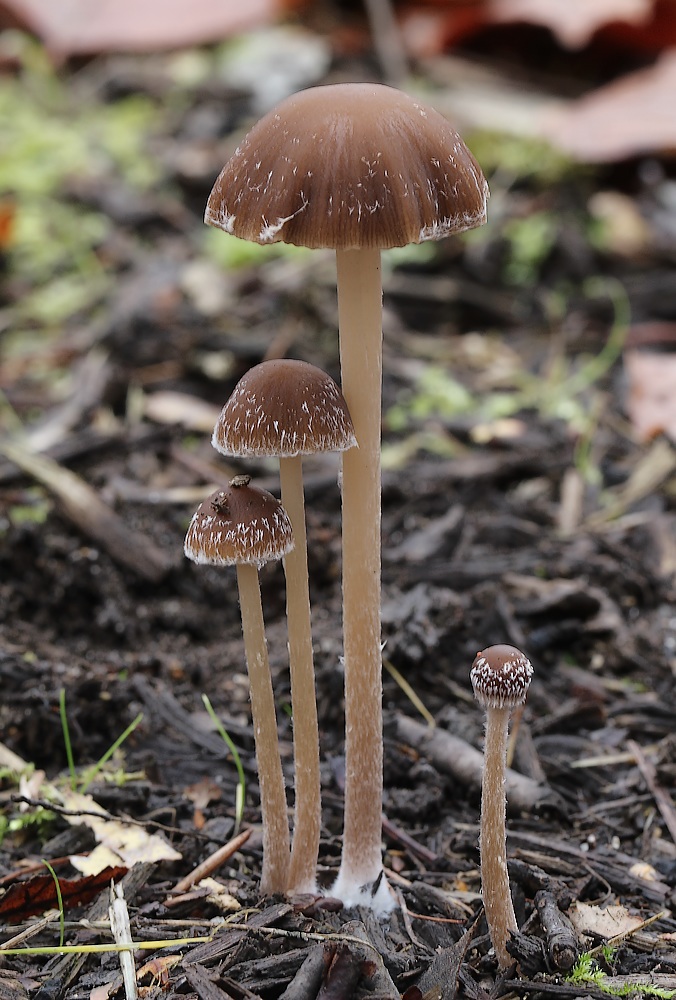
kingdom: Fungi
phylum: Basidiomycota
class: Agaricomycetes
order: Agaricales
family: Psathyrellaceae
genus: Psathyrella
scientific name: Psathyrella microrhiza
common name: rod-mørkhat
